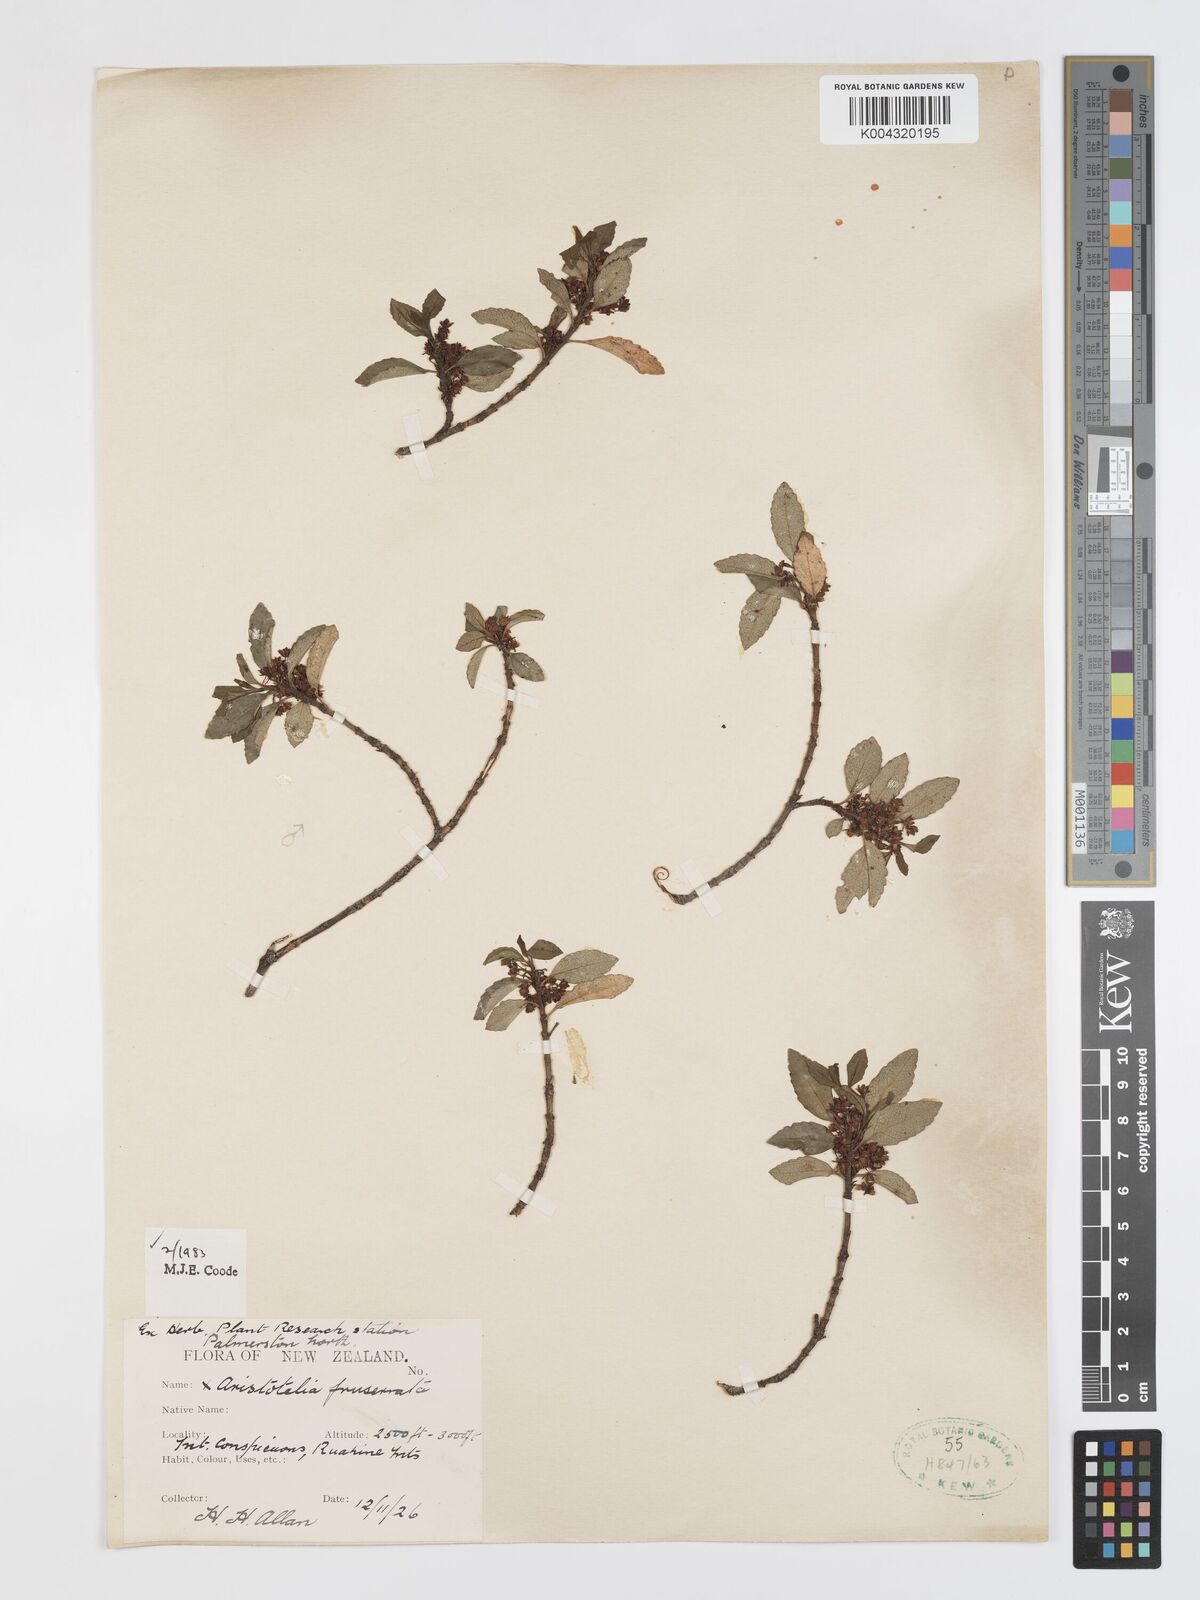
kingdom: Plantae
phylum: Tracheophyta
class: Magnoliopsida
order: Oxalidales
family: Elaeocarpaceae
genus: Aristotelia
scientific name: Aristotelia fruticosa
